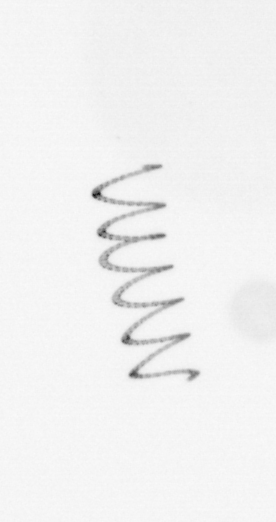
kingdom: Chromista
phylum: Ochrophyta
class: Bacillariophyceae
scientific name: Bacillariophyceae
